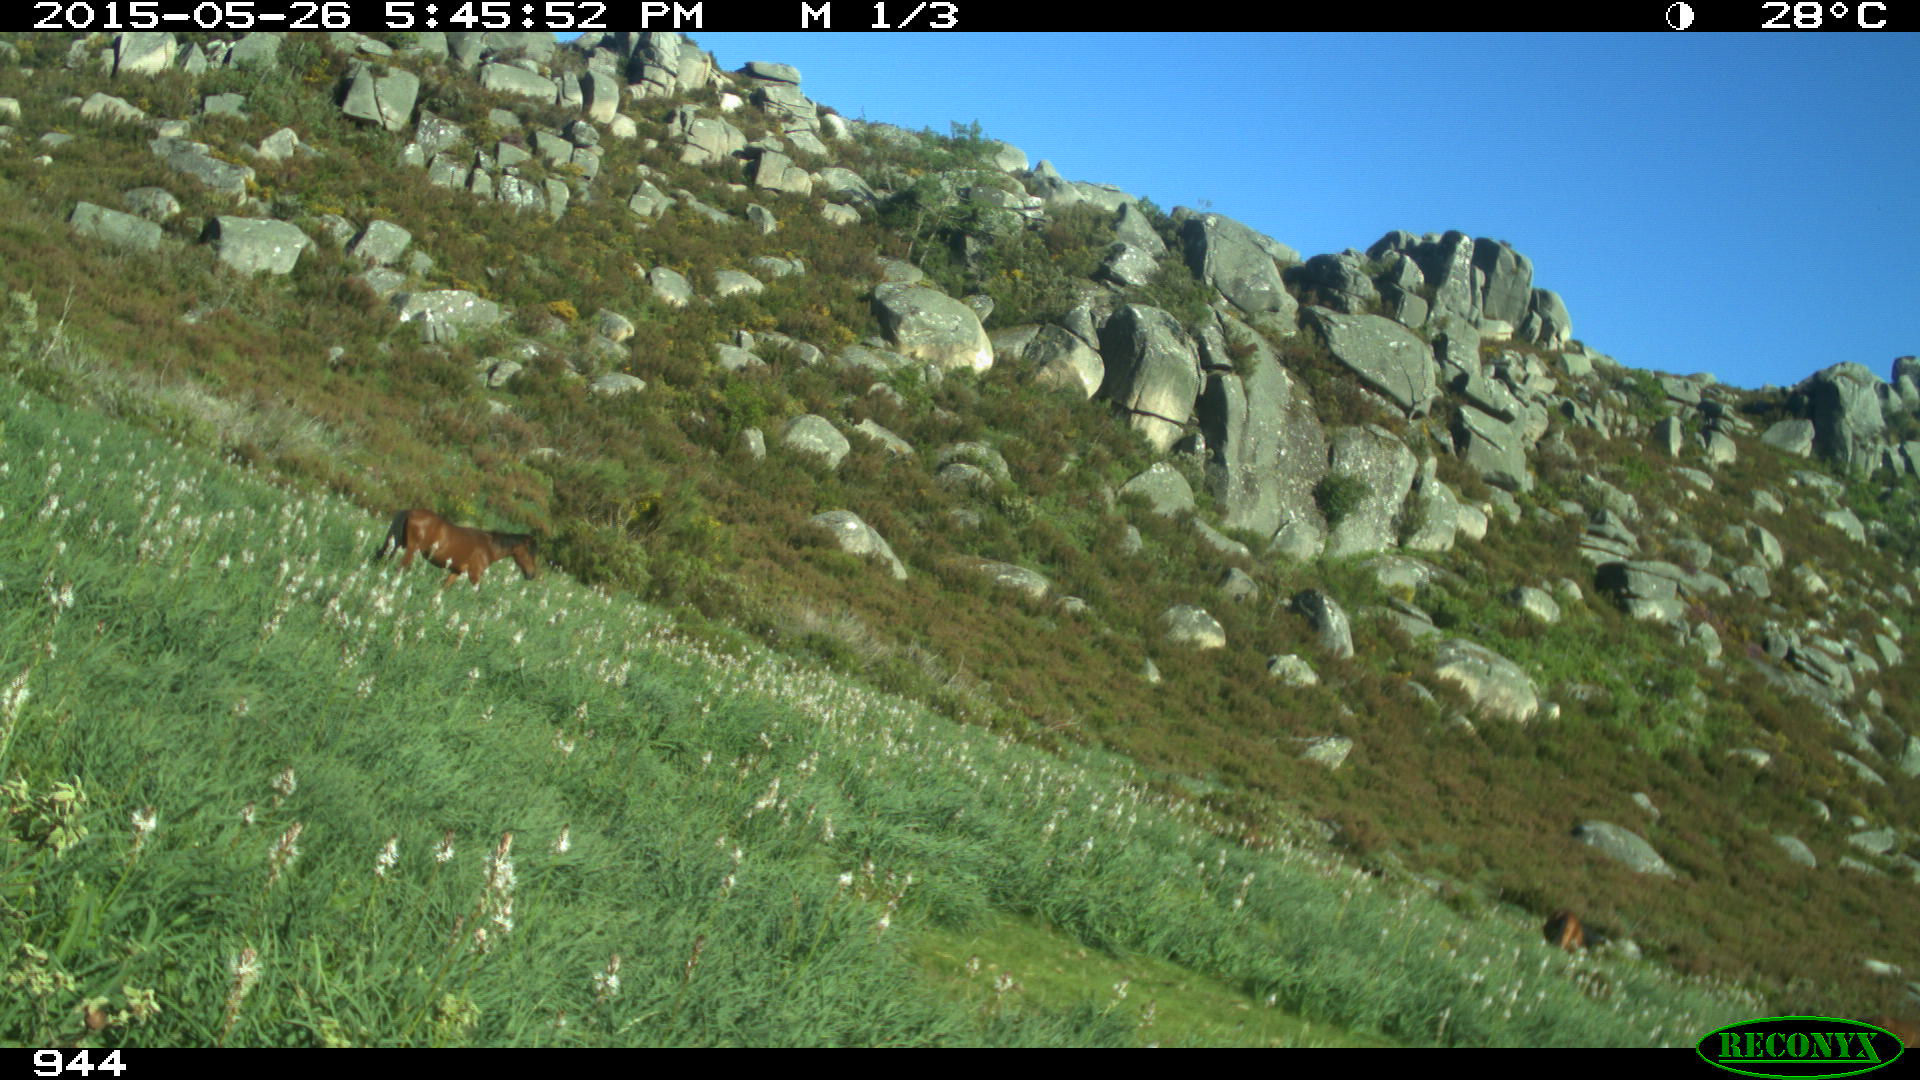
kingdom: Animalia
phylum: Chordata
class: Mammalia
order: Perissodactyla
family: Equidae
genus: Equus
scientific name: Equus caballus
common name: Horse
